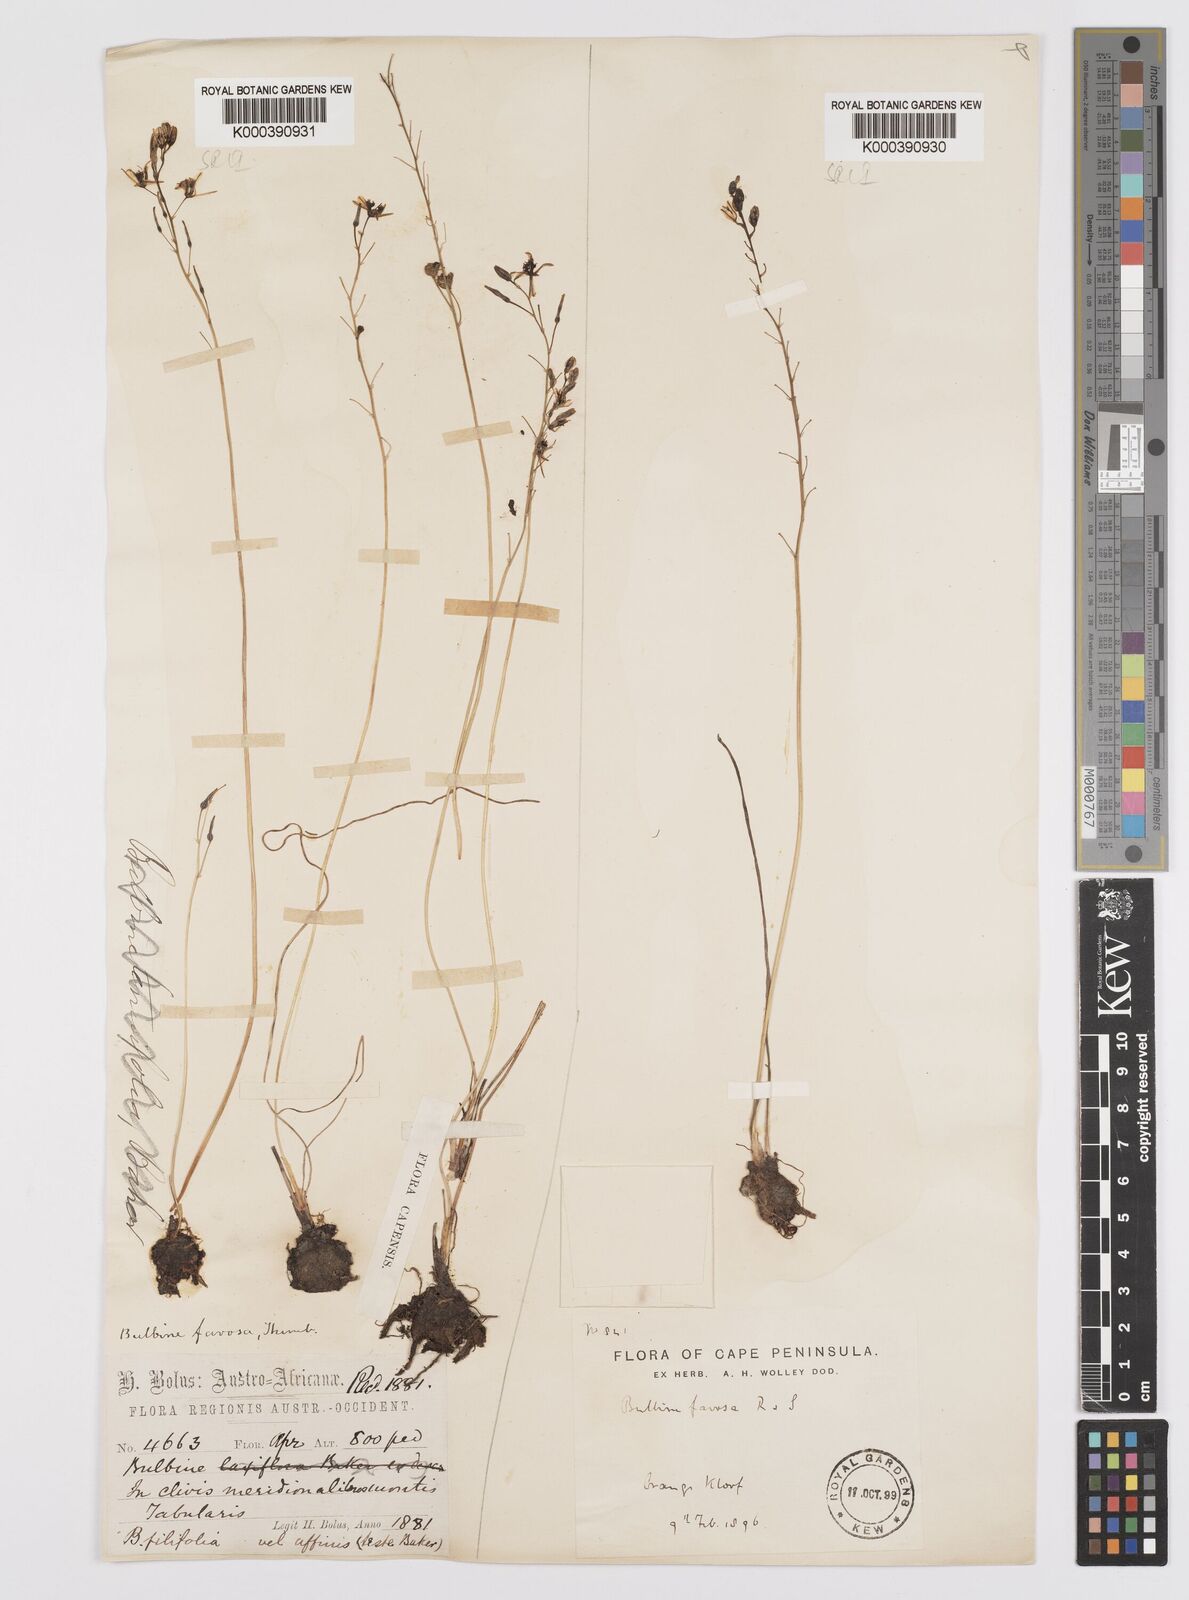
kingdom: Plantae
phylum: Tracheophyta
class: Liliopsida
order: Asparagales
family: Asphodelaceae
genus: Bulbine
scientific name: Bulbine favosa
